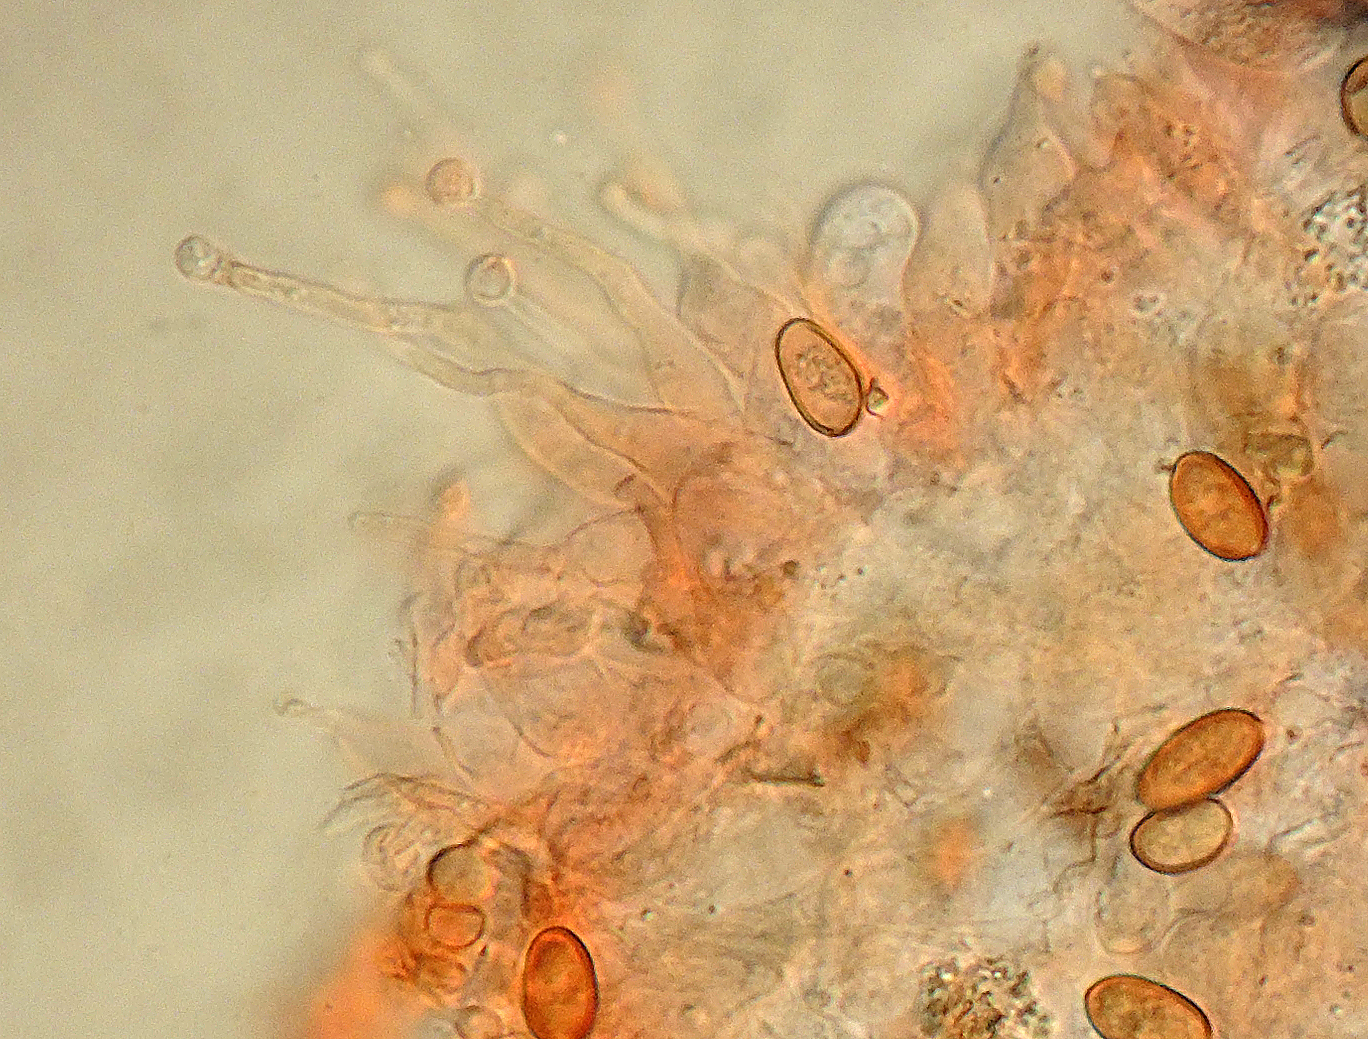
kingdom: Fungi
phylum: Basidiomycota
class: Agaricomycetes
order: Agaricales
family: Bolbitiaceae
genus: Pholiotina
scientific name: Pholiotina pseudoampullaceocystis
